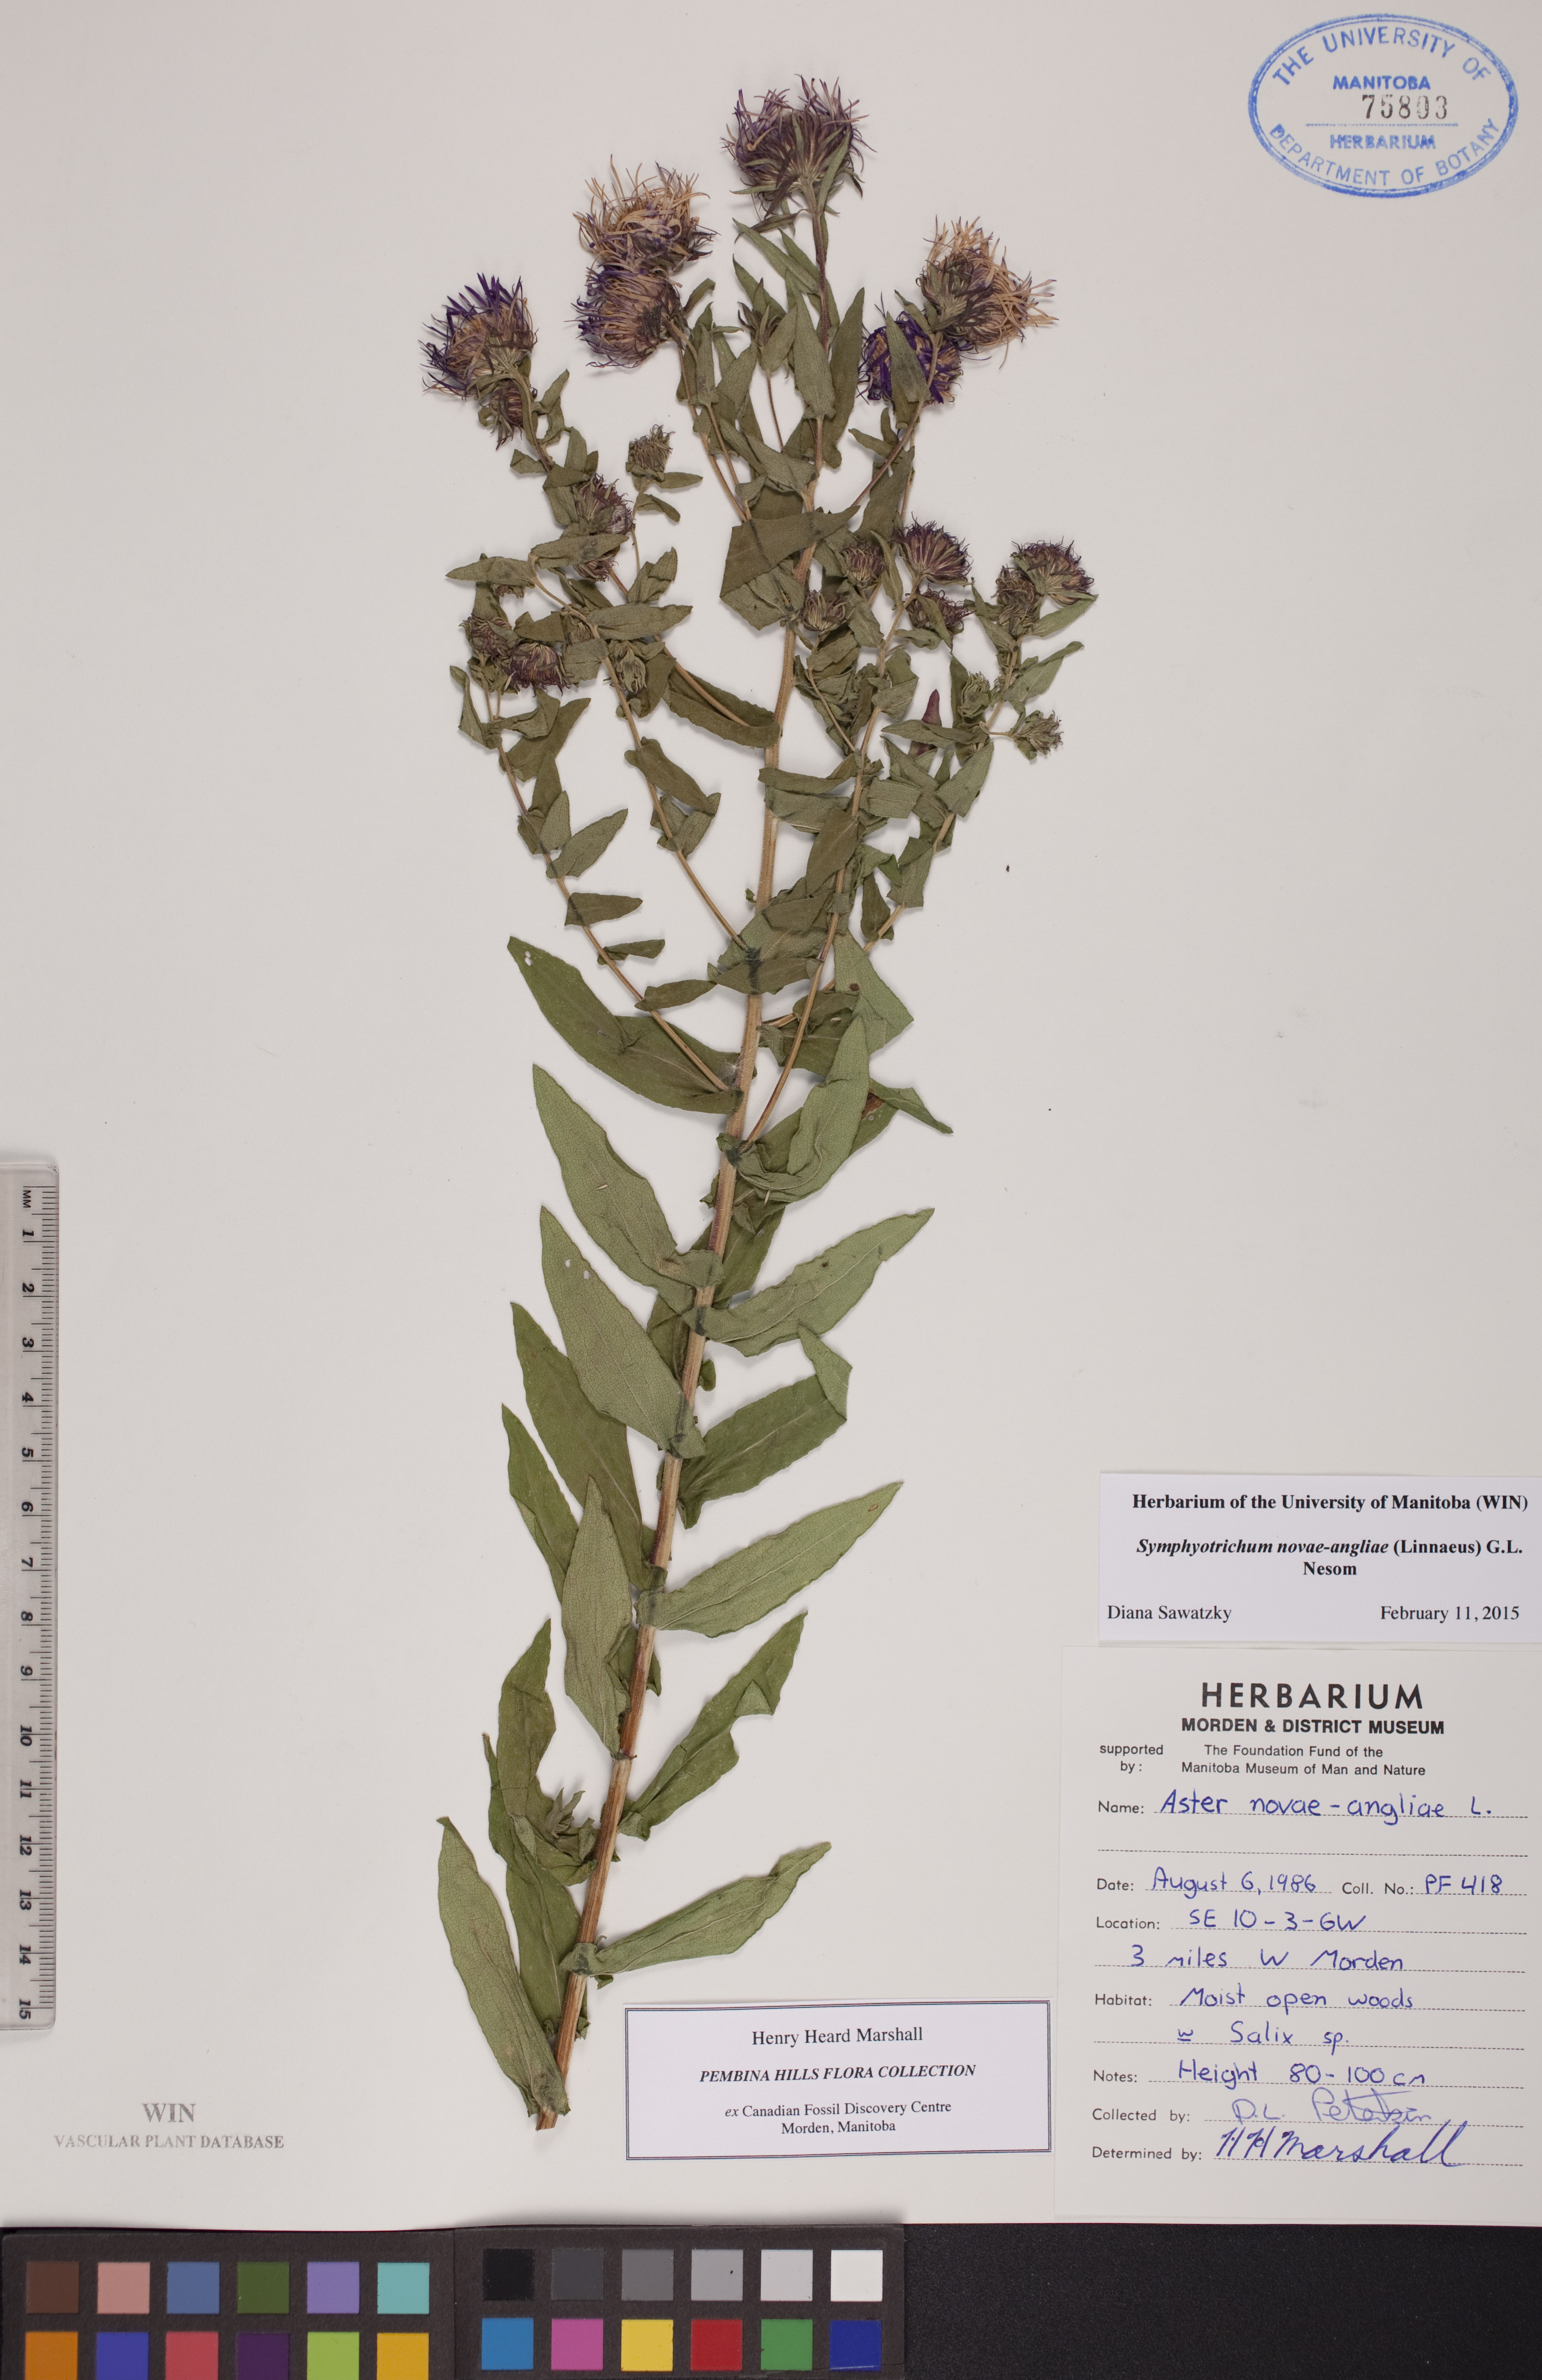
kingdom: Plantae
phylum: Tracheophyta
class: Magnoliopsida
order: Asterales
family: Asteraceae
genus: Symphyotrichum
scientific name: Symphyotrichum novae-angliae
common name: Michaelmas daisy
